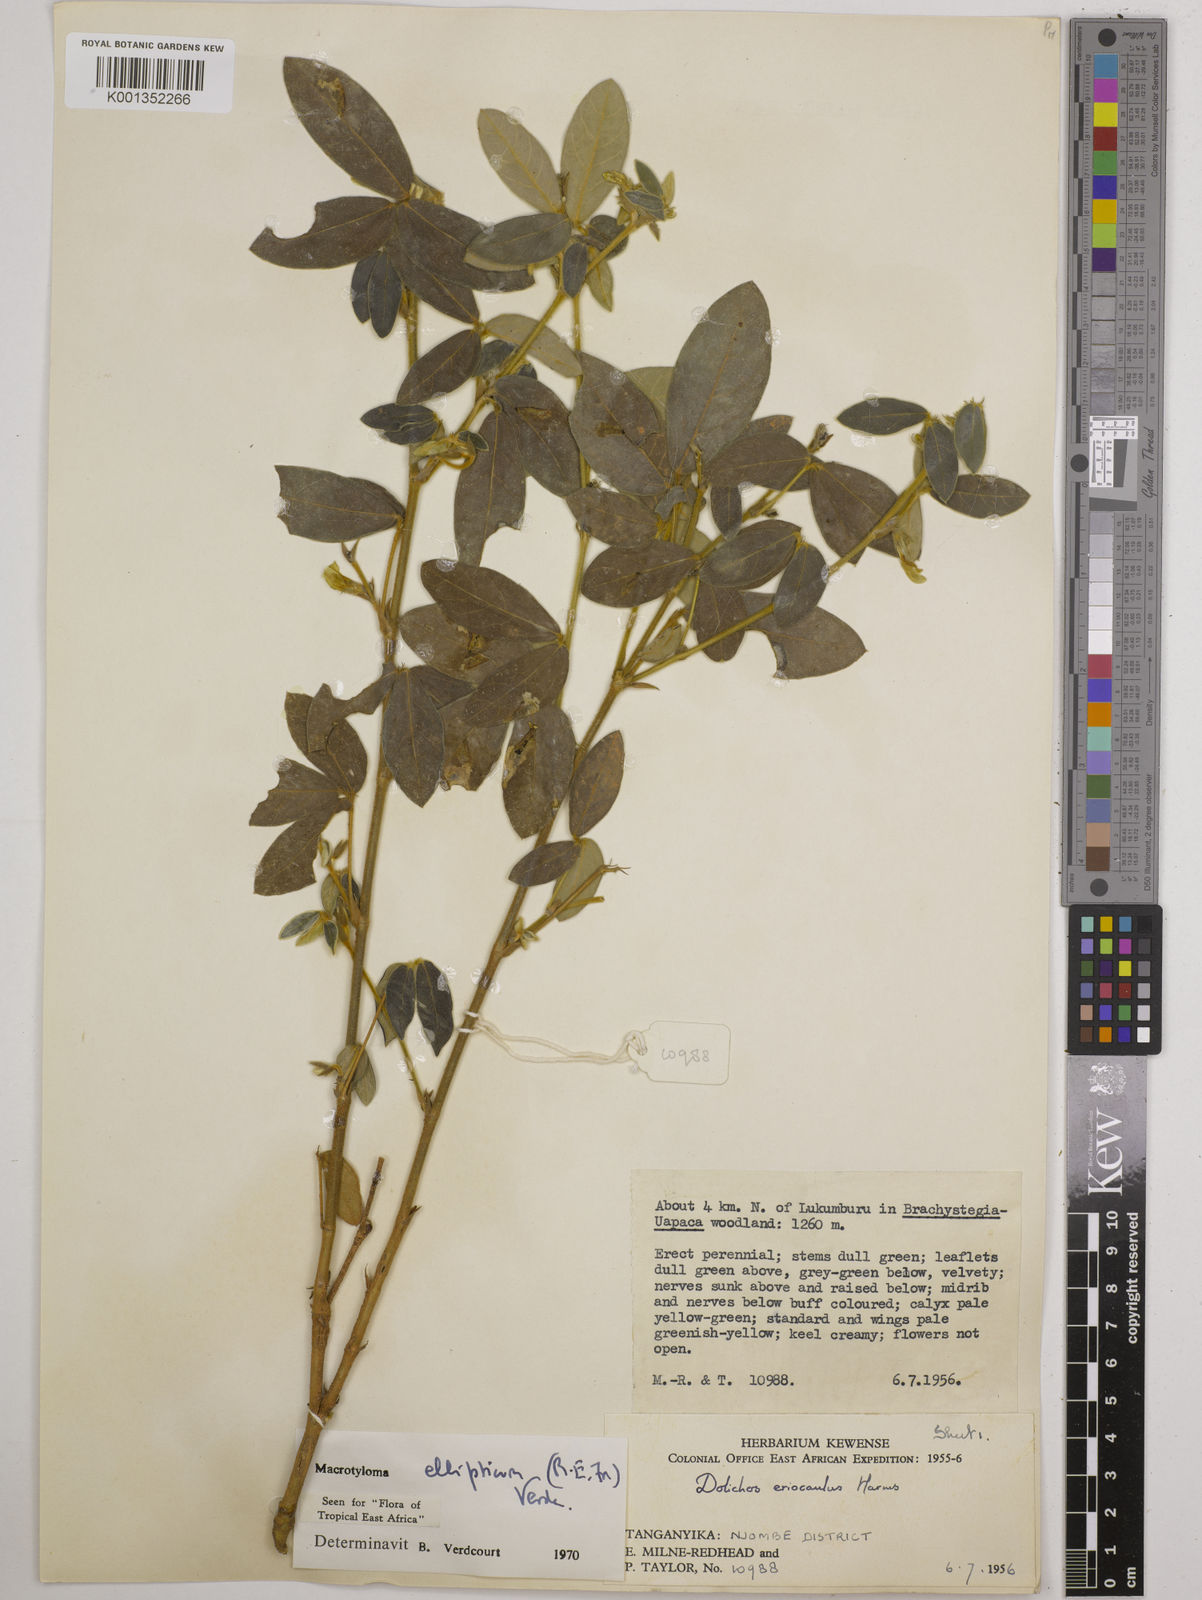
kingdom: Plantae
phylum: Tracheophyta
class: Magnoliopsida
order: Fabales
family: Fabaceae
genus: Macrotyloma
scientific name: Macrotyloma ellipticum
